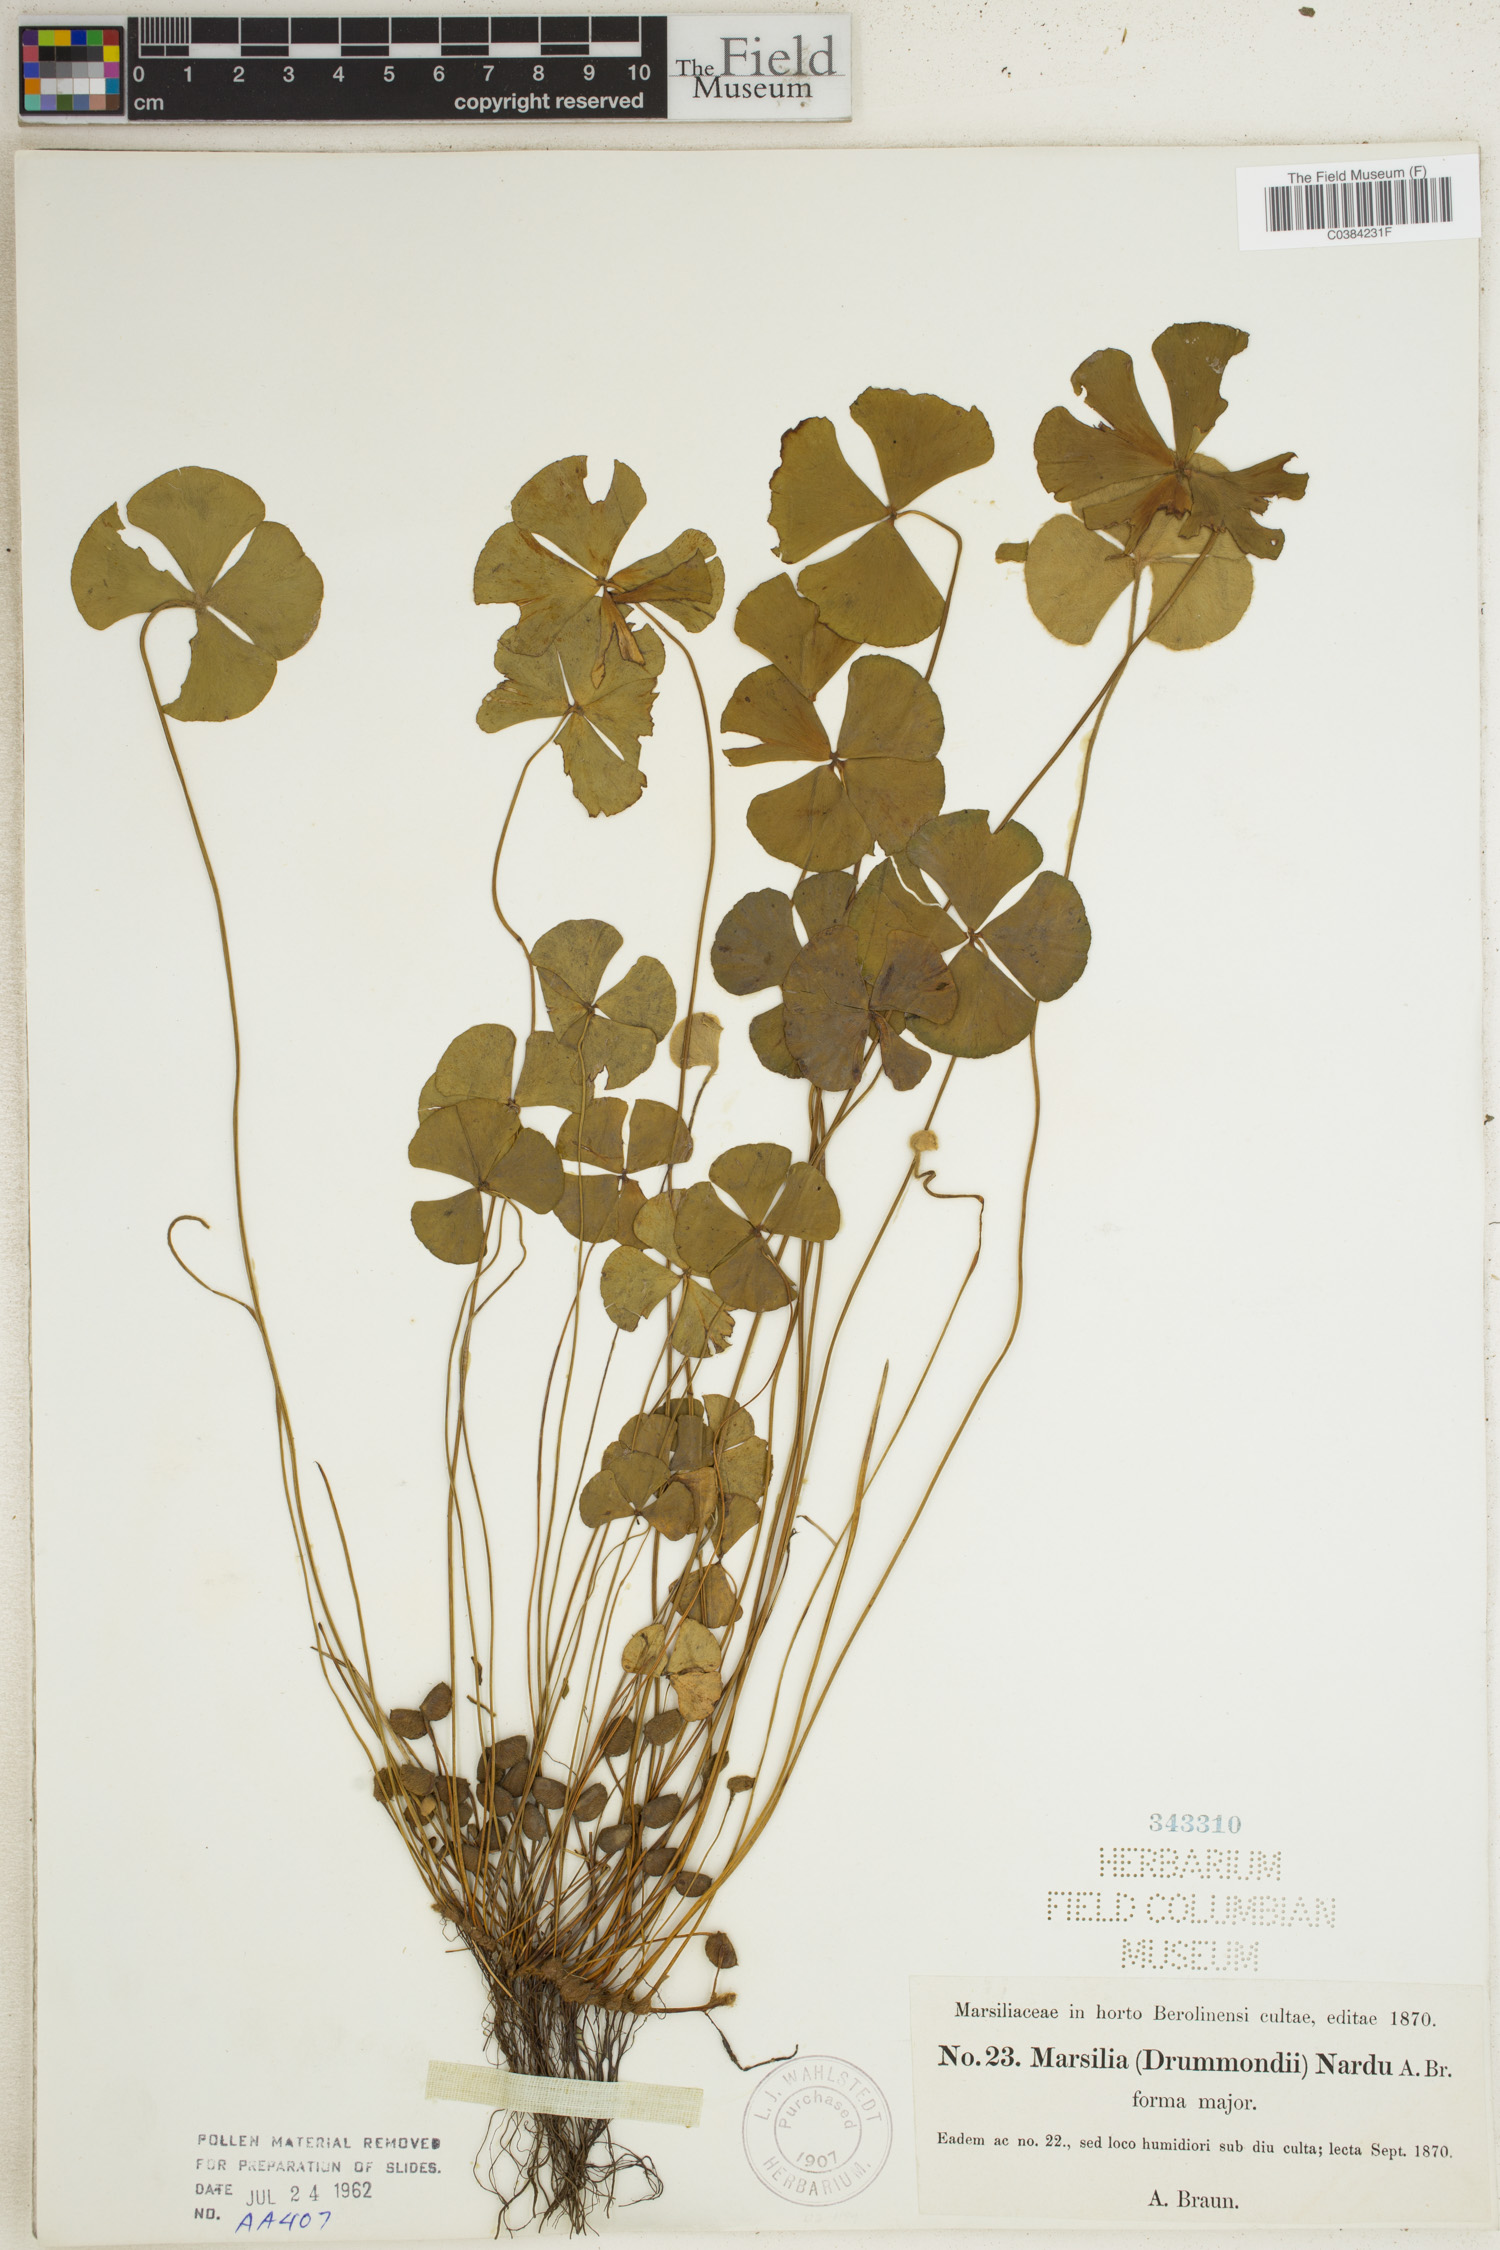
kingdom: Plantae
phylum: Tracheophyta
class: Polypodiopsida
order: Salviniales
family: Marsileaceae
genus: Marsilea
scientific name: Marsilea drummondii
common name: Nardoo
